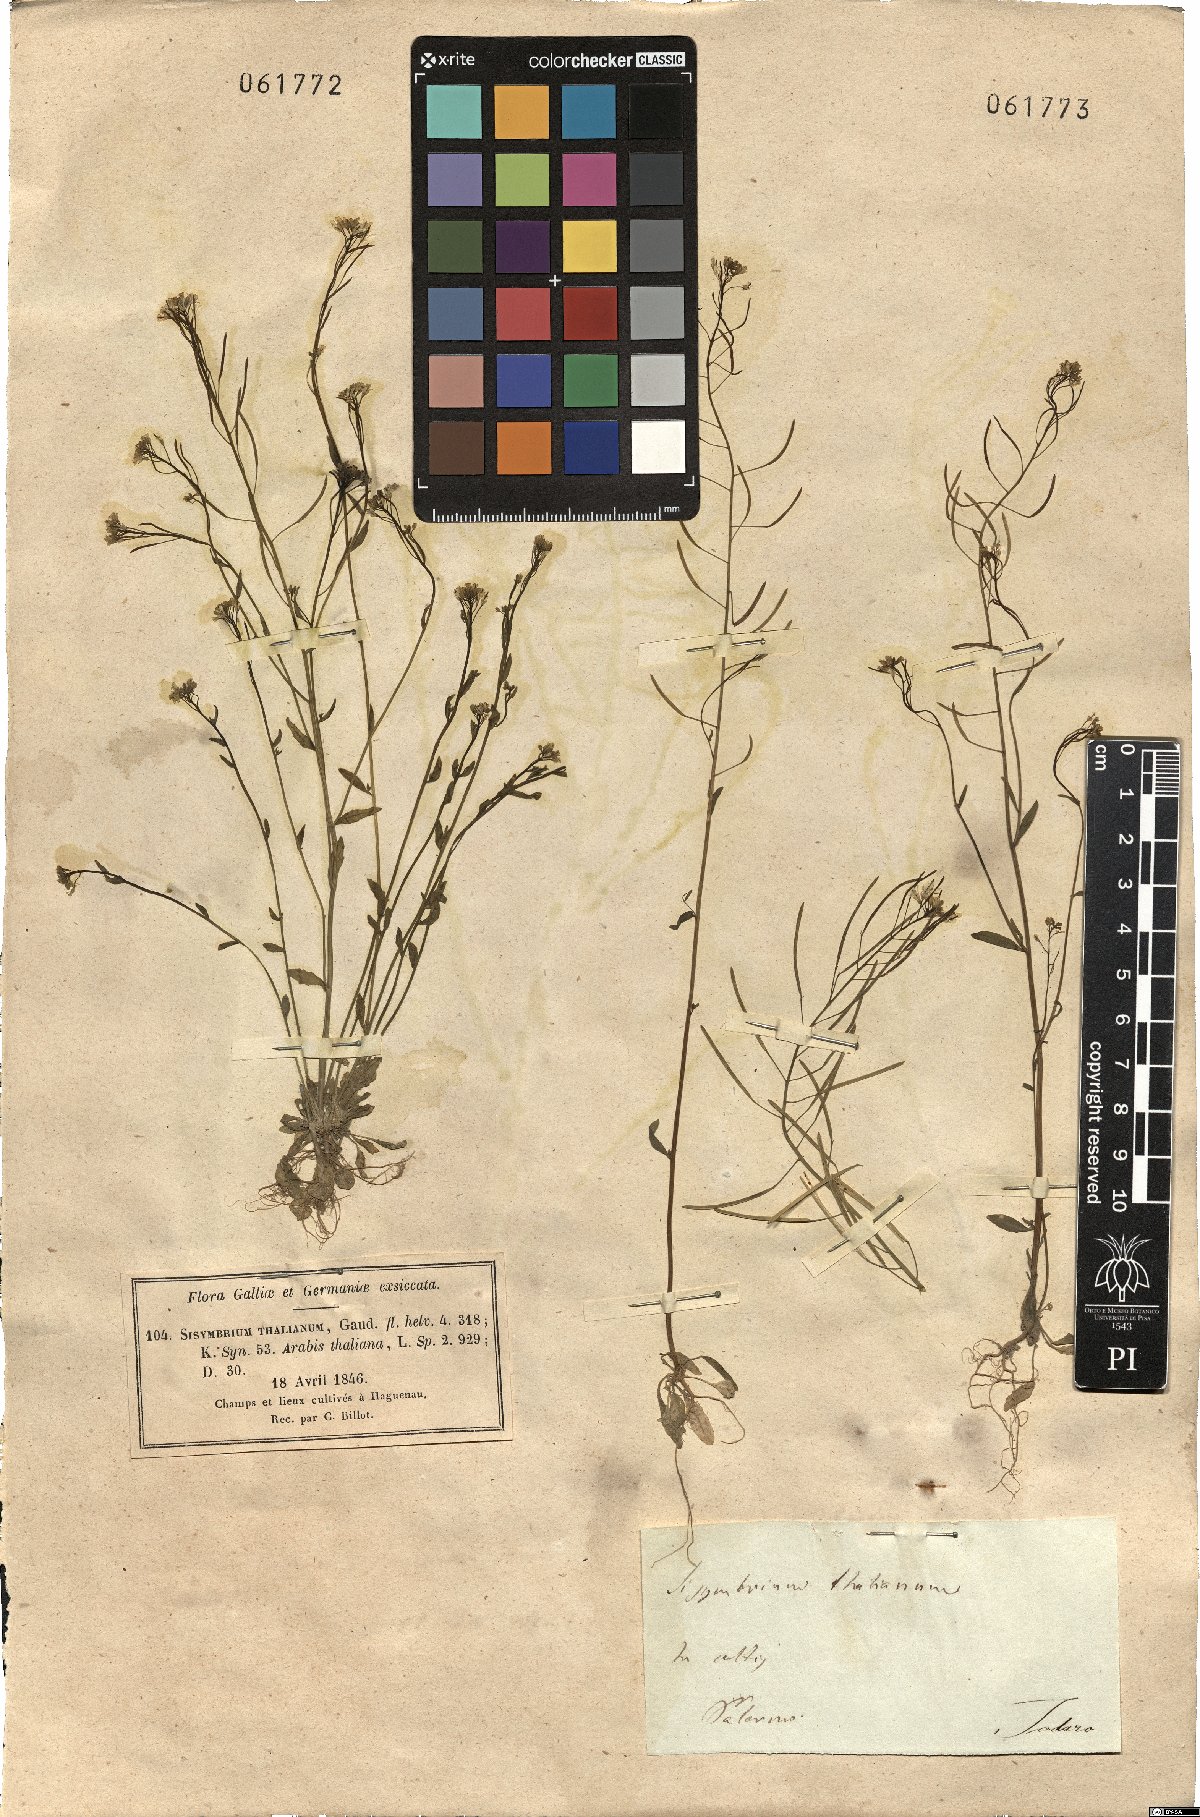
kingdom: Plantae
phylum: Tracheophyta
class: Magnoliopsida
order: Brassicales
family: Brassicaceae
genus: Arabidopsis
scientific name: Arabidopsis thaliana
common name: Thale cress
